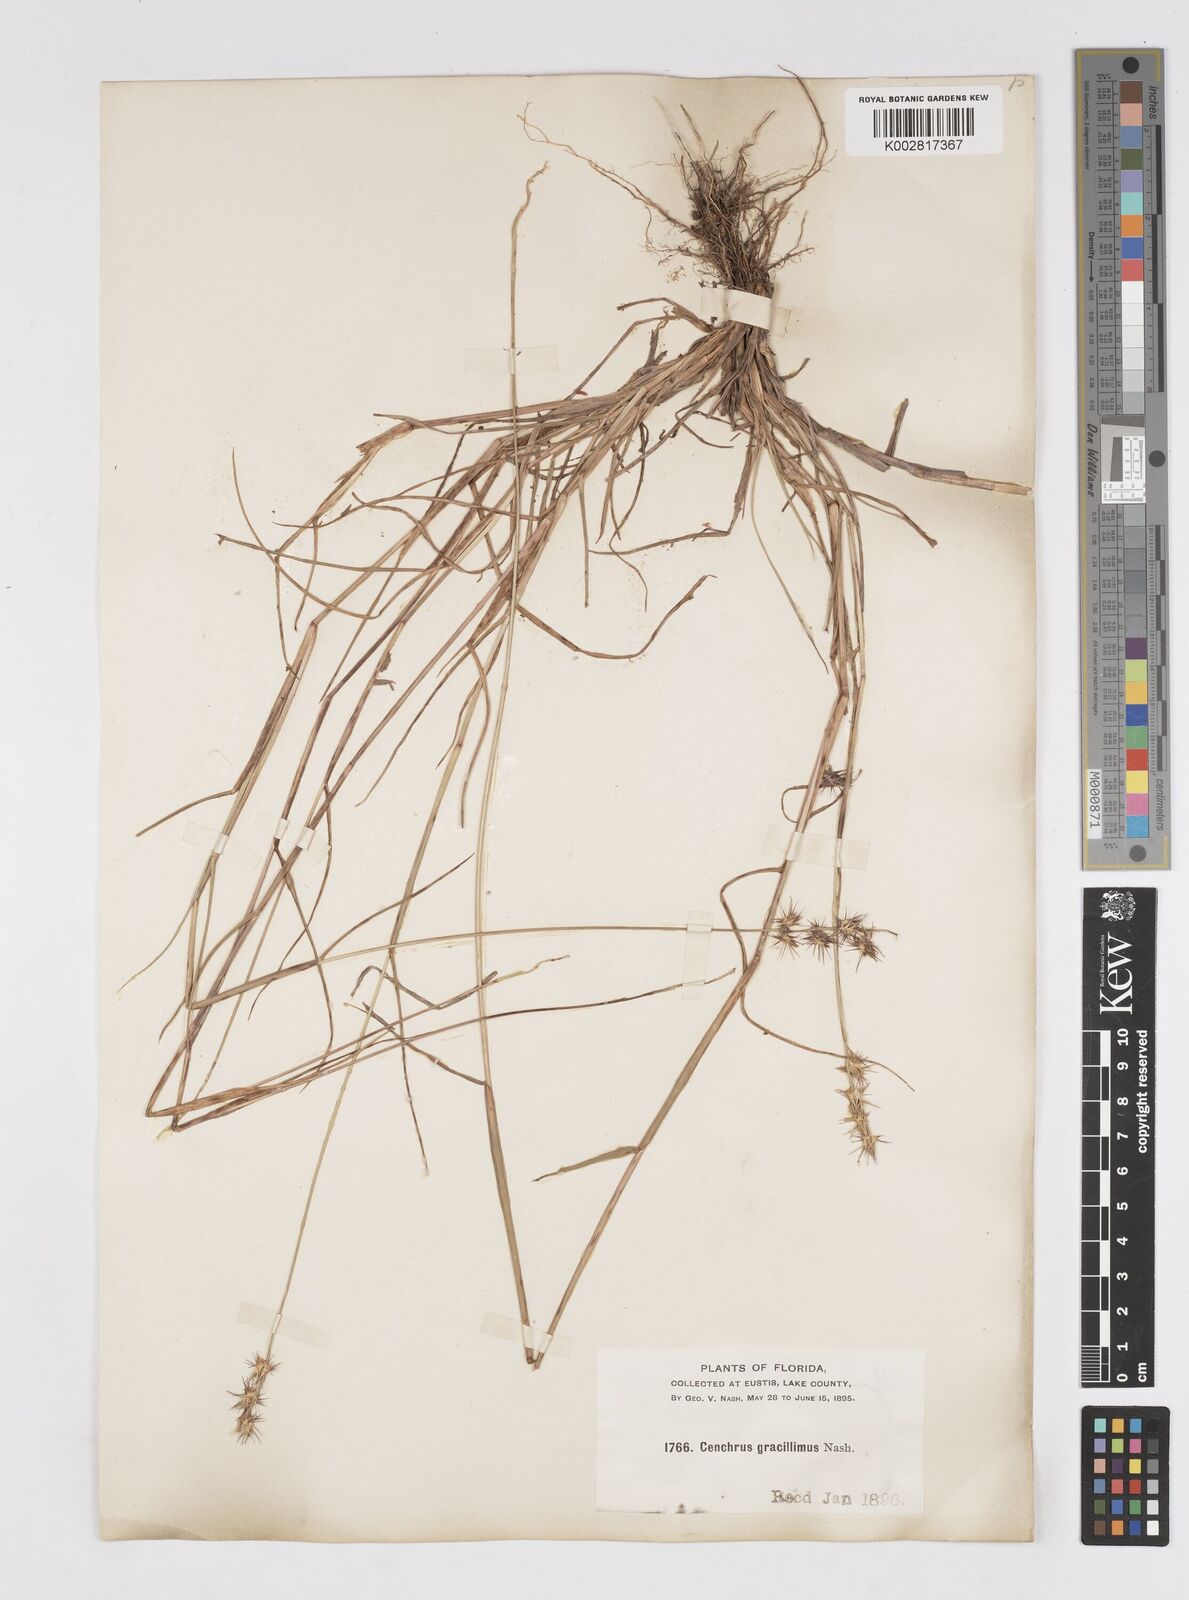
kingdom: Plantae
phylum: Tracheophyta
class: Liliopsida
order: Poales
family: Poaceae
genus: Cenchrus
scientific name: Cenchrus gracillimus
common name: Slender sandbur
